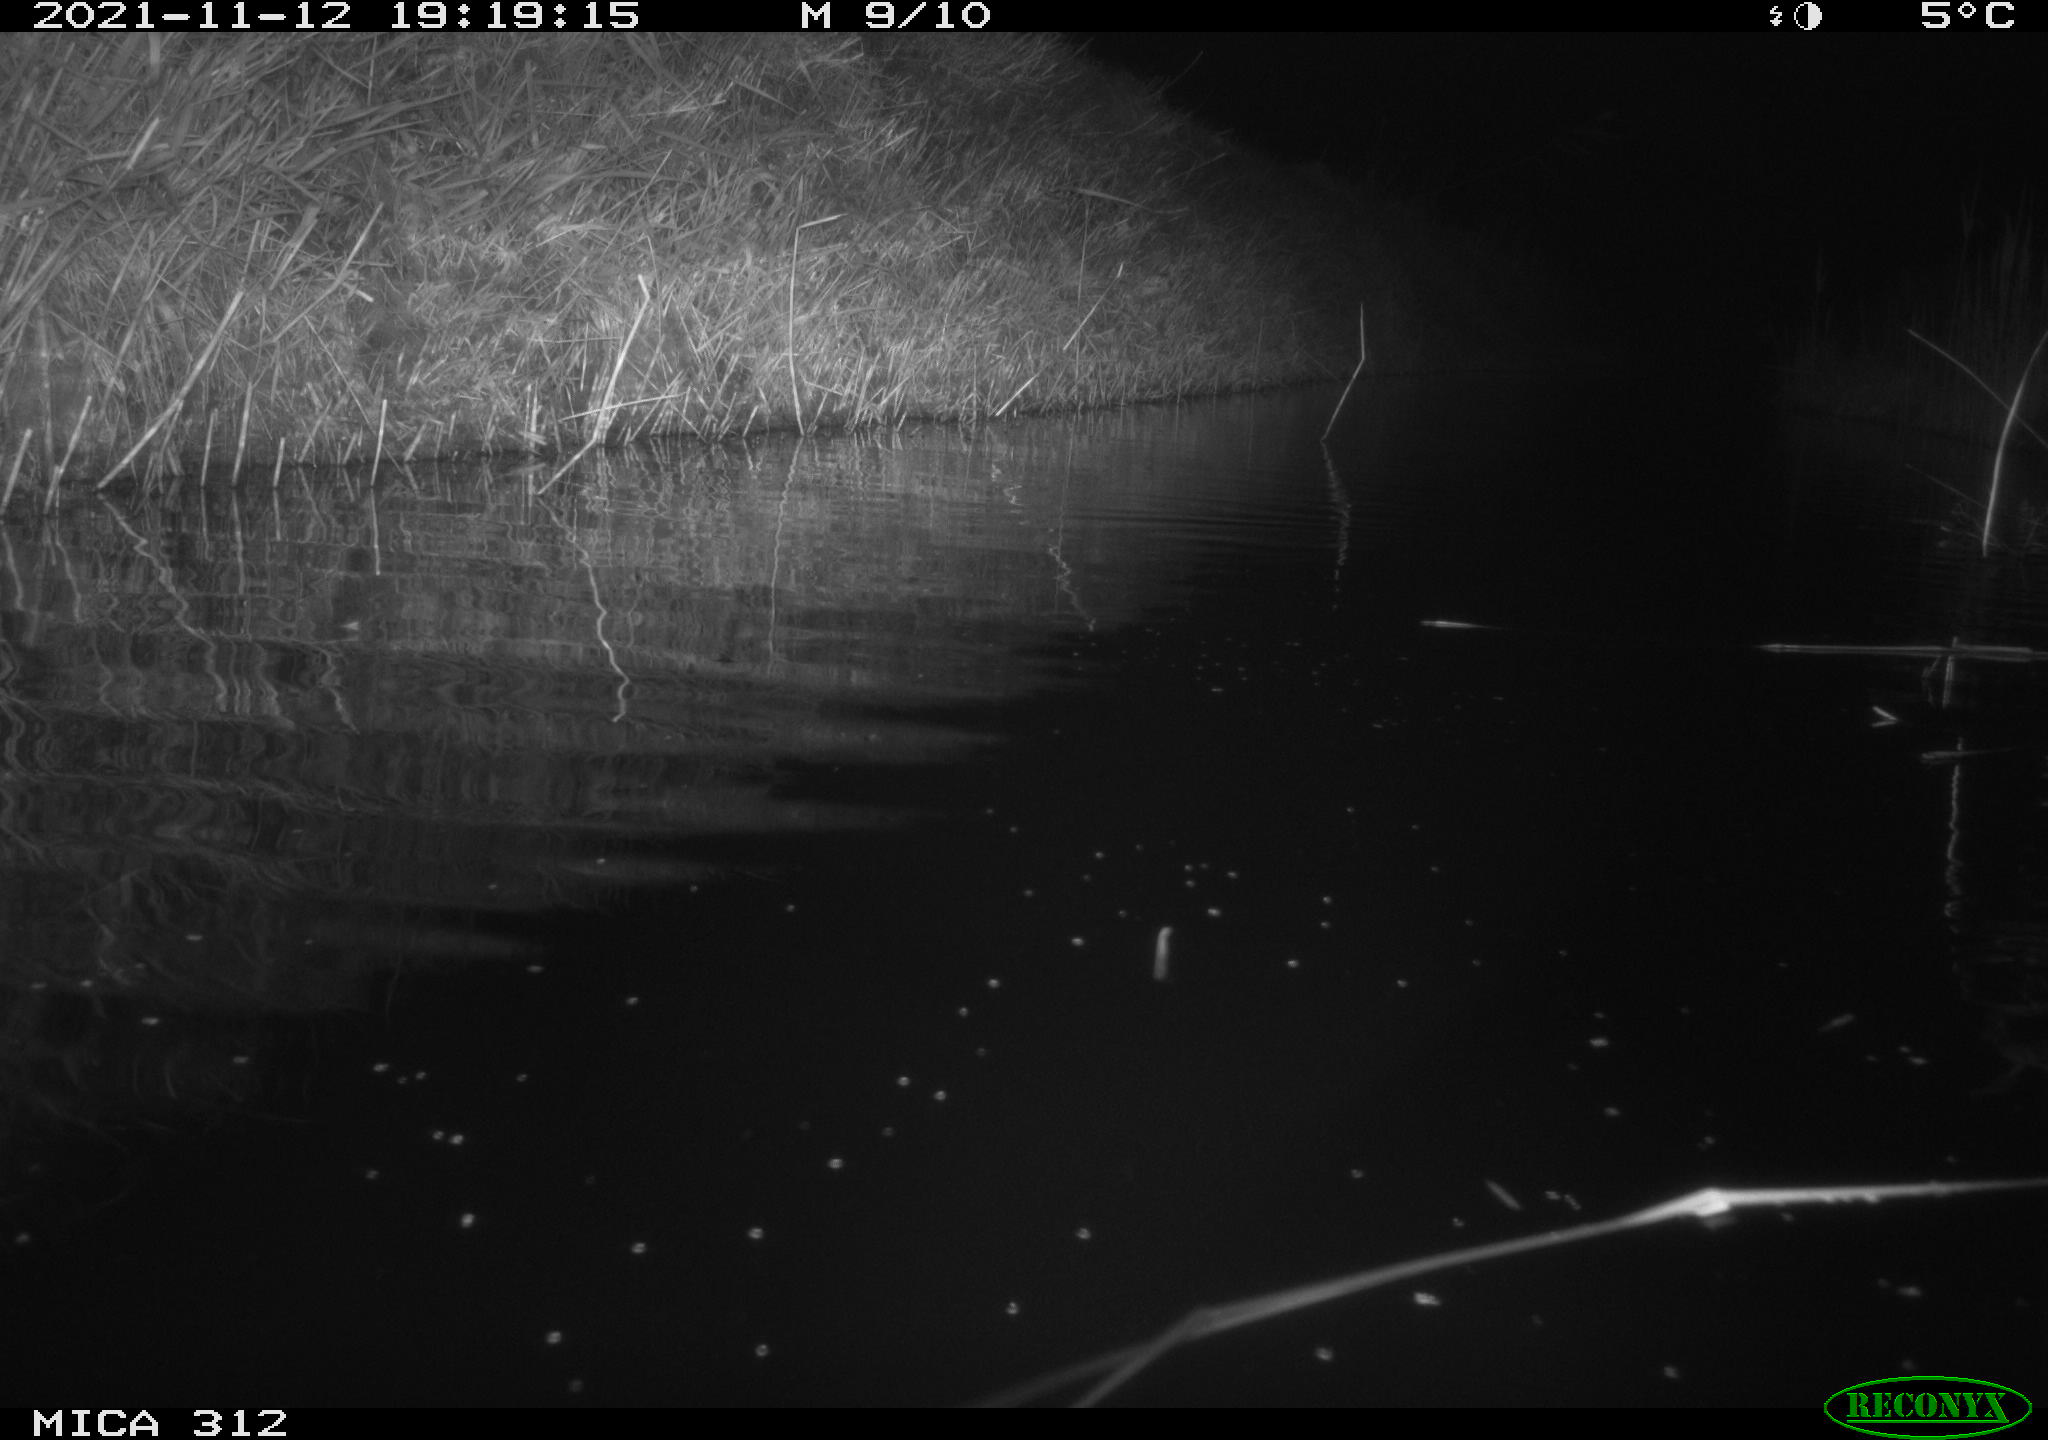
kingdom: Animalia
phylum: Chordata
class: Mammalia
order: Rodentia
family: Cricetidae
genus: Ondatra
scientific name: Ondatra zibethicus
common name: Muskrat
